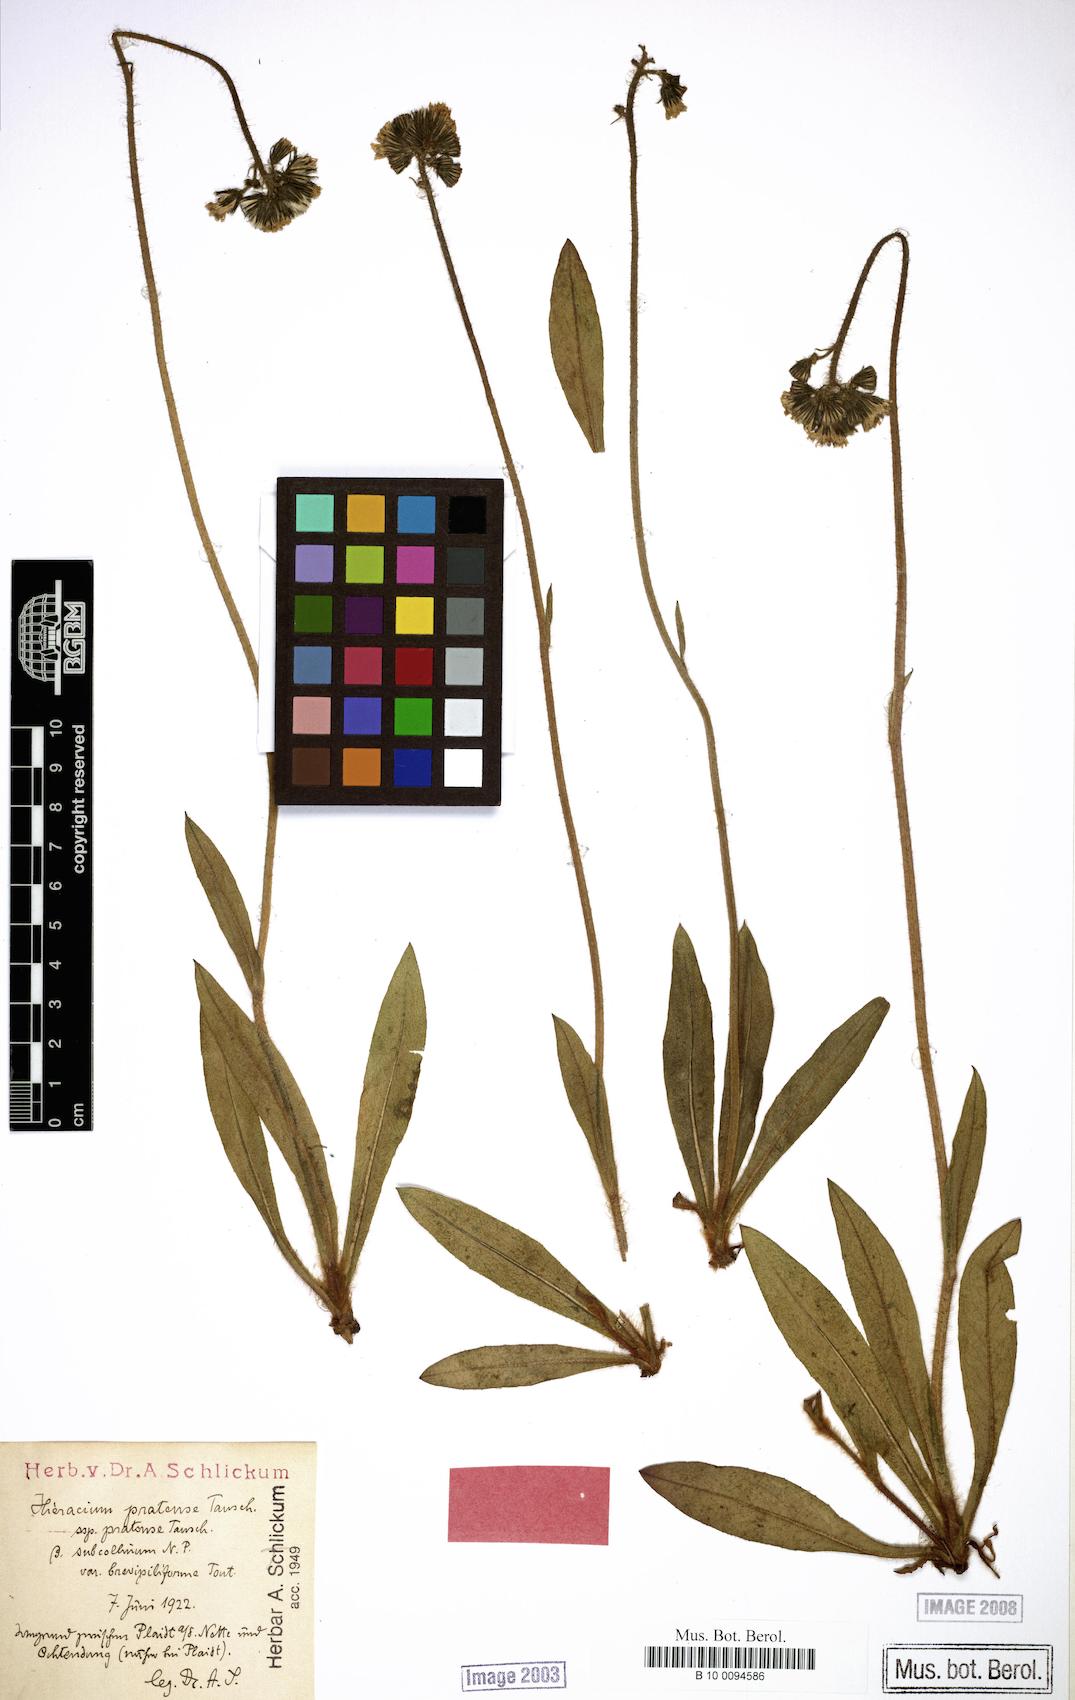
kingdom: Plantae
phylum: Tracheophyta
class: Magnoliopsida
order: Asterales
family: Asteraceae
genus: Pilosella
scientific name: Pilosella caespitosa
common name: Yellow fox-and-cubs
